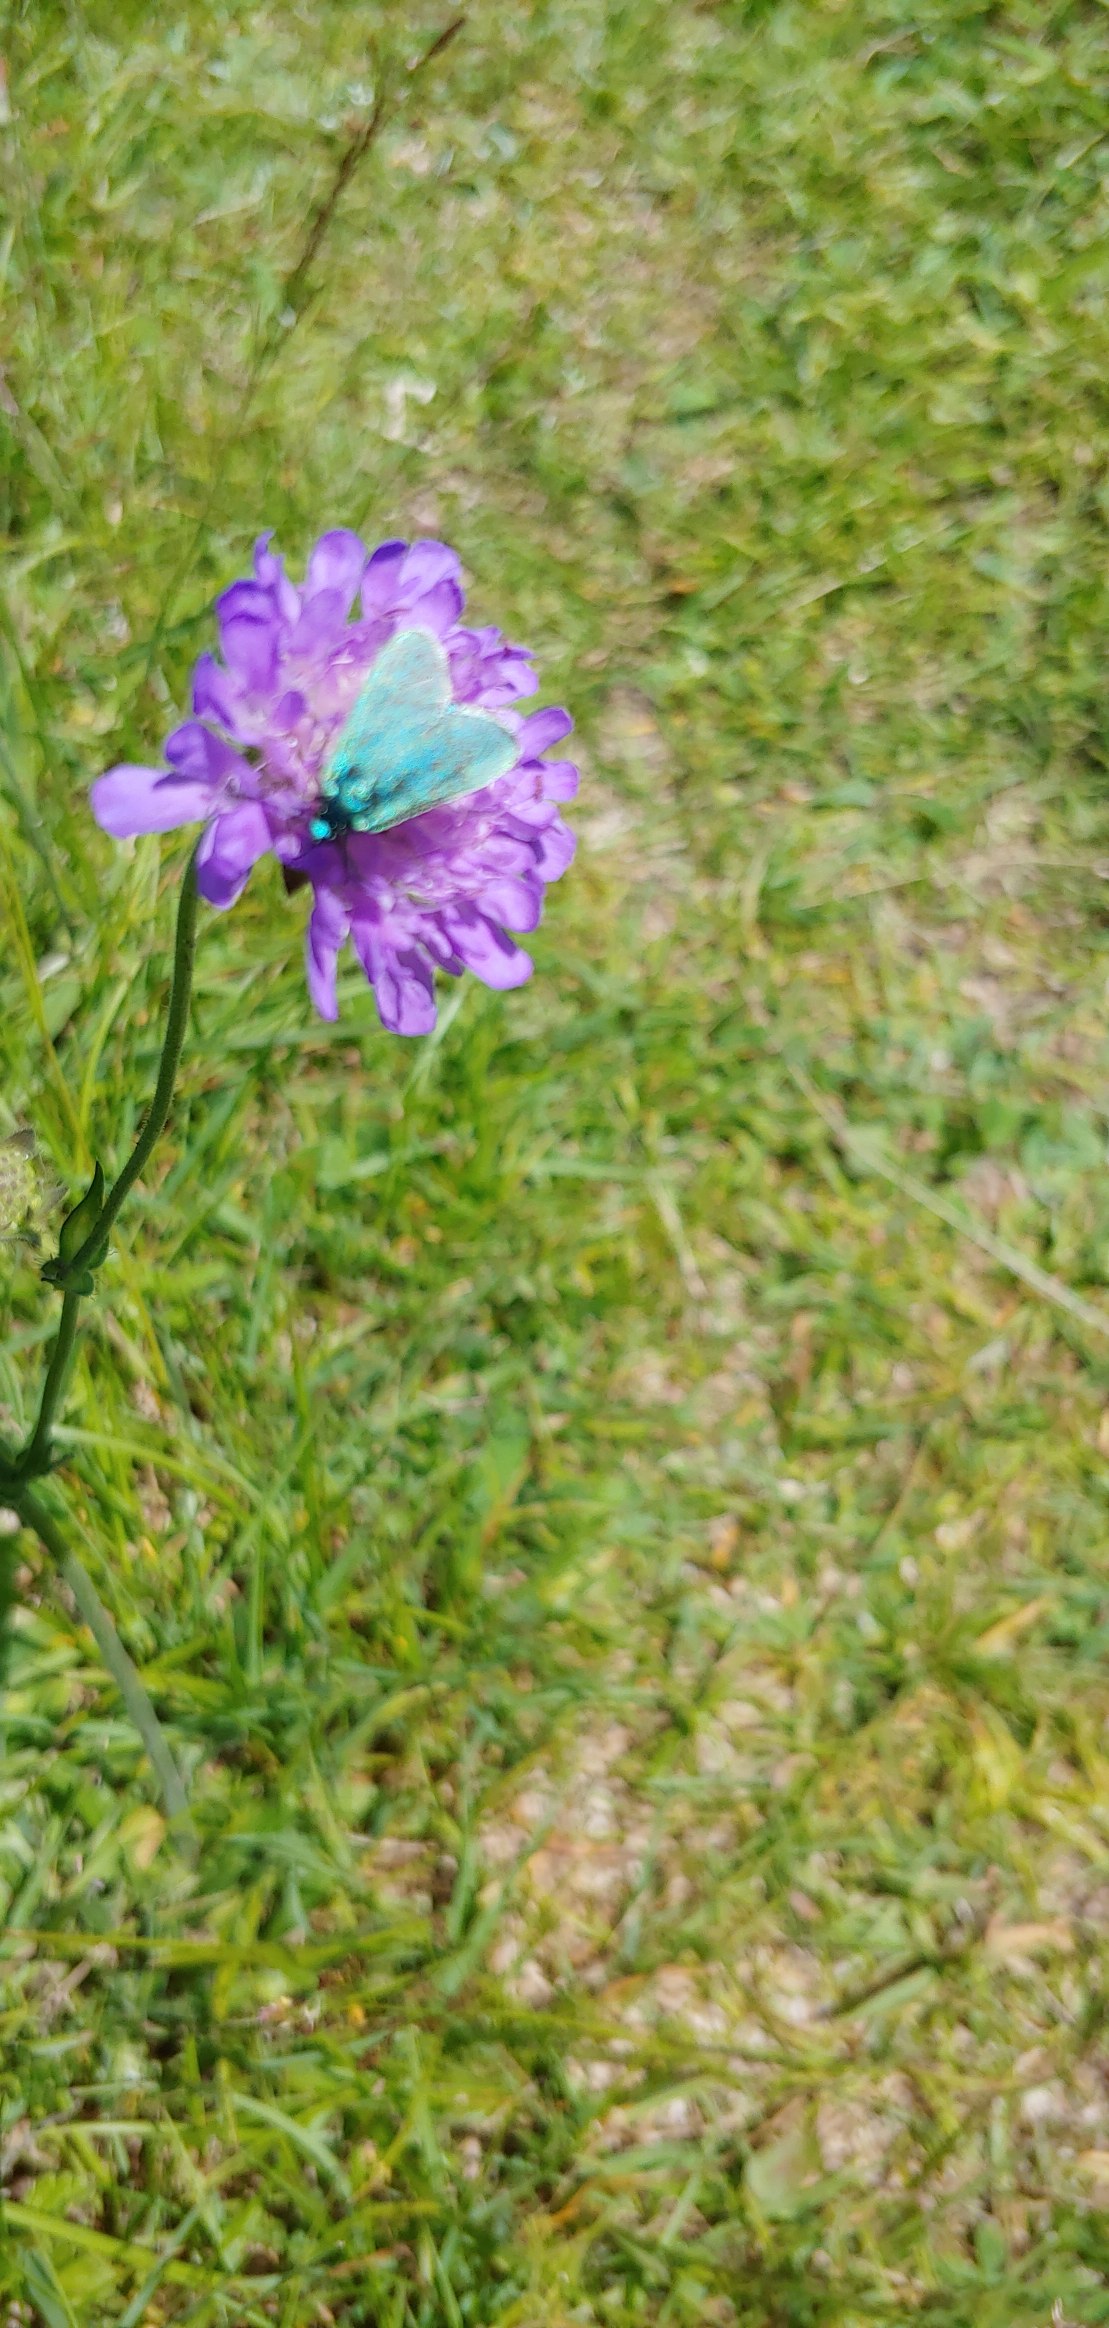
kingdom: Animalia
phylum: Arthropoda
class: Insecta
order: Lepidoptera
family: Zygaenidae
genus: Adscita
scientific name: Adscita statices
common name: Metalvinge
